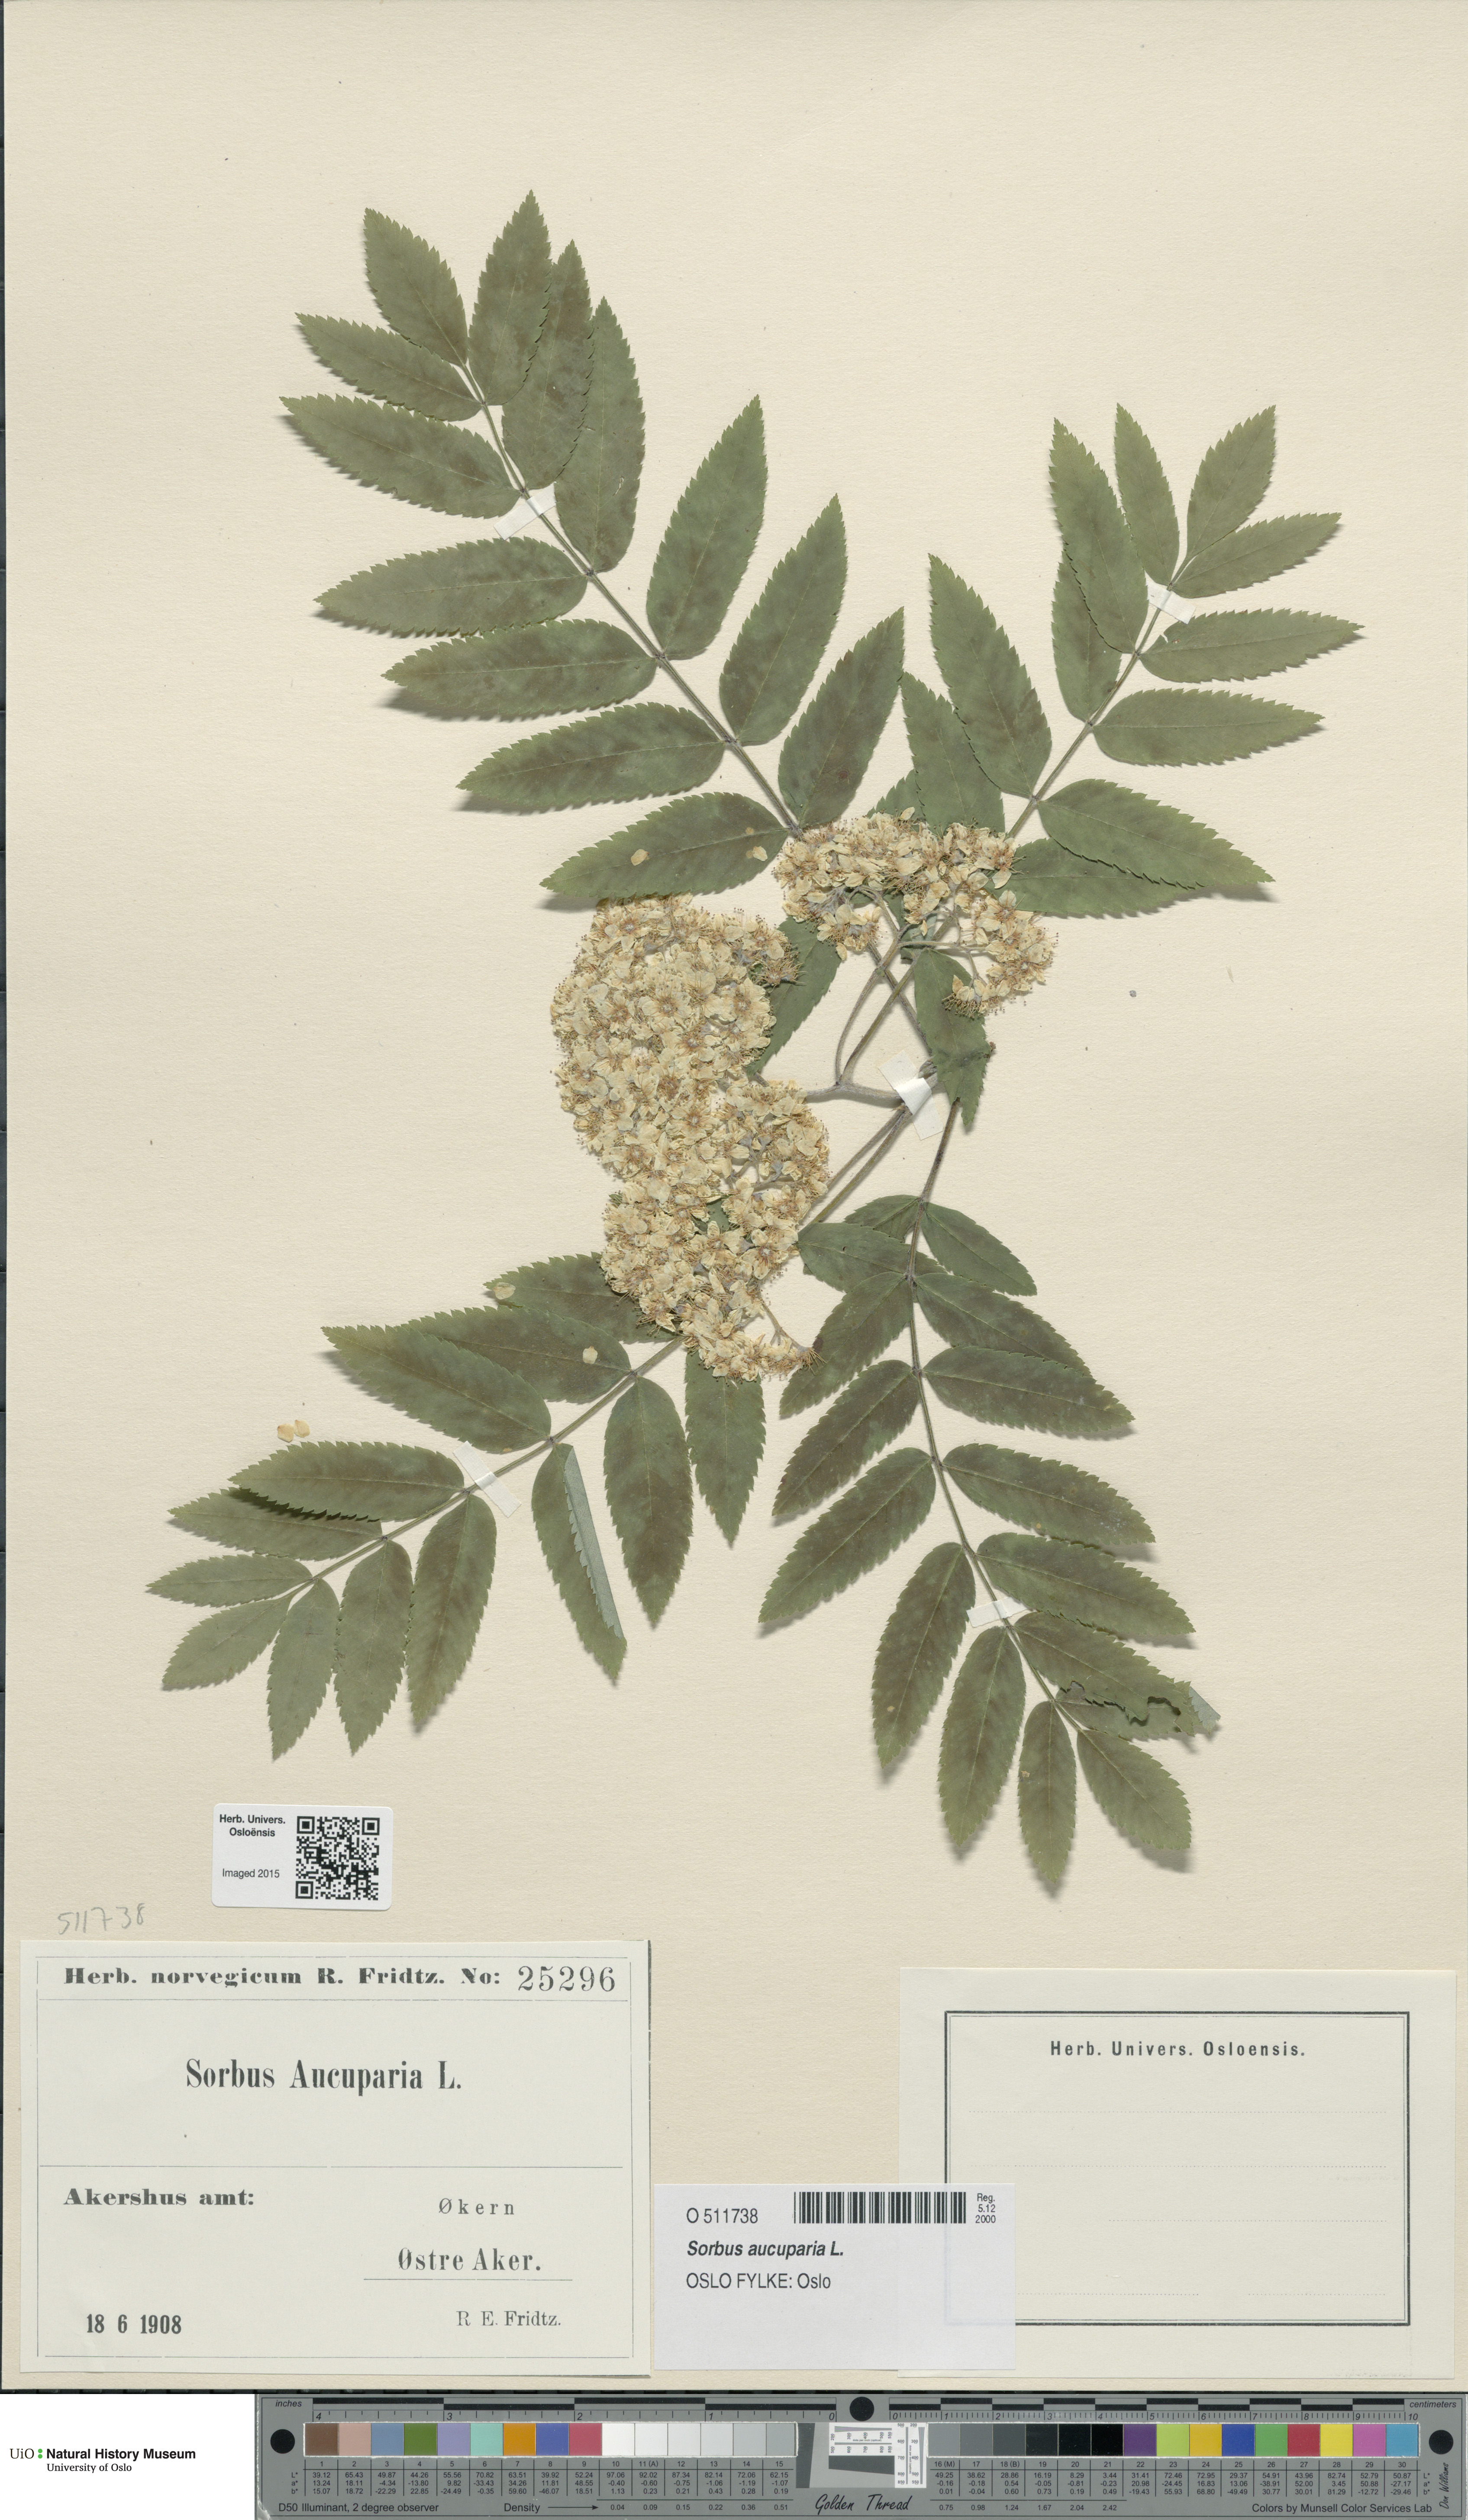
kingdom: Plantae
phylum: Tracheophyta
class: Magnoliopsida
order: Rosales
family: Rosaceae
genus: Sorbus
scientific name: Sorbus aucuparia
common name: Rowan
